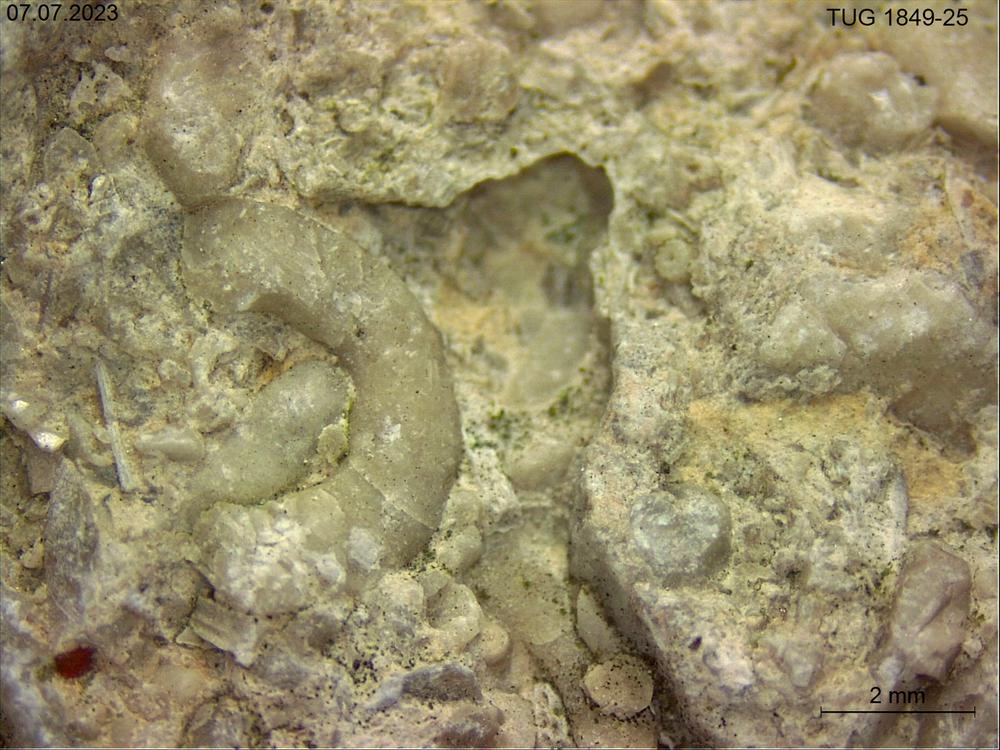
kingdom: Animalia
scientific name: Animalia
